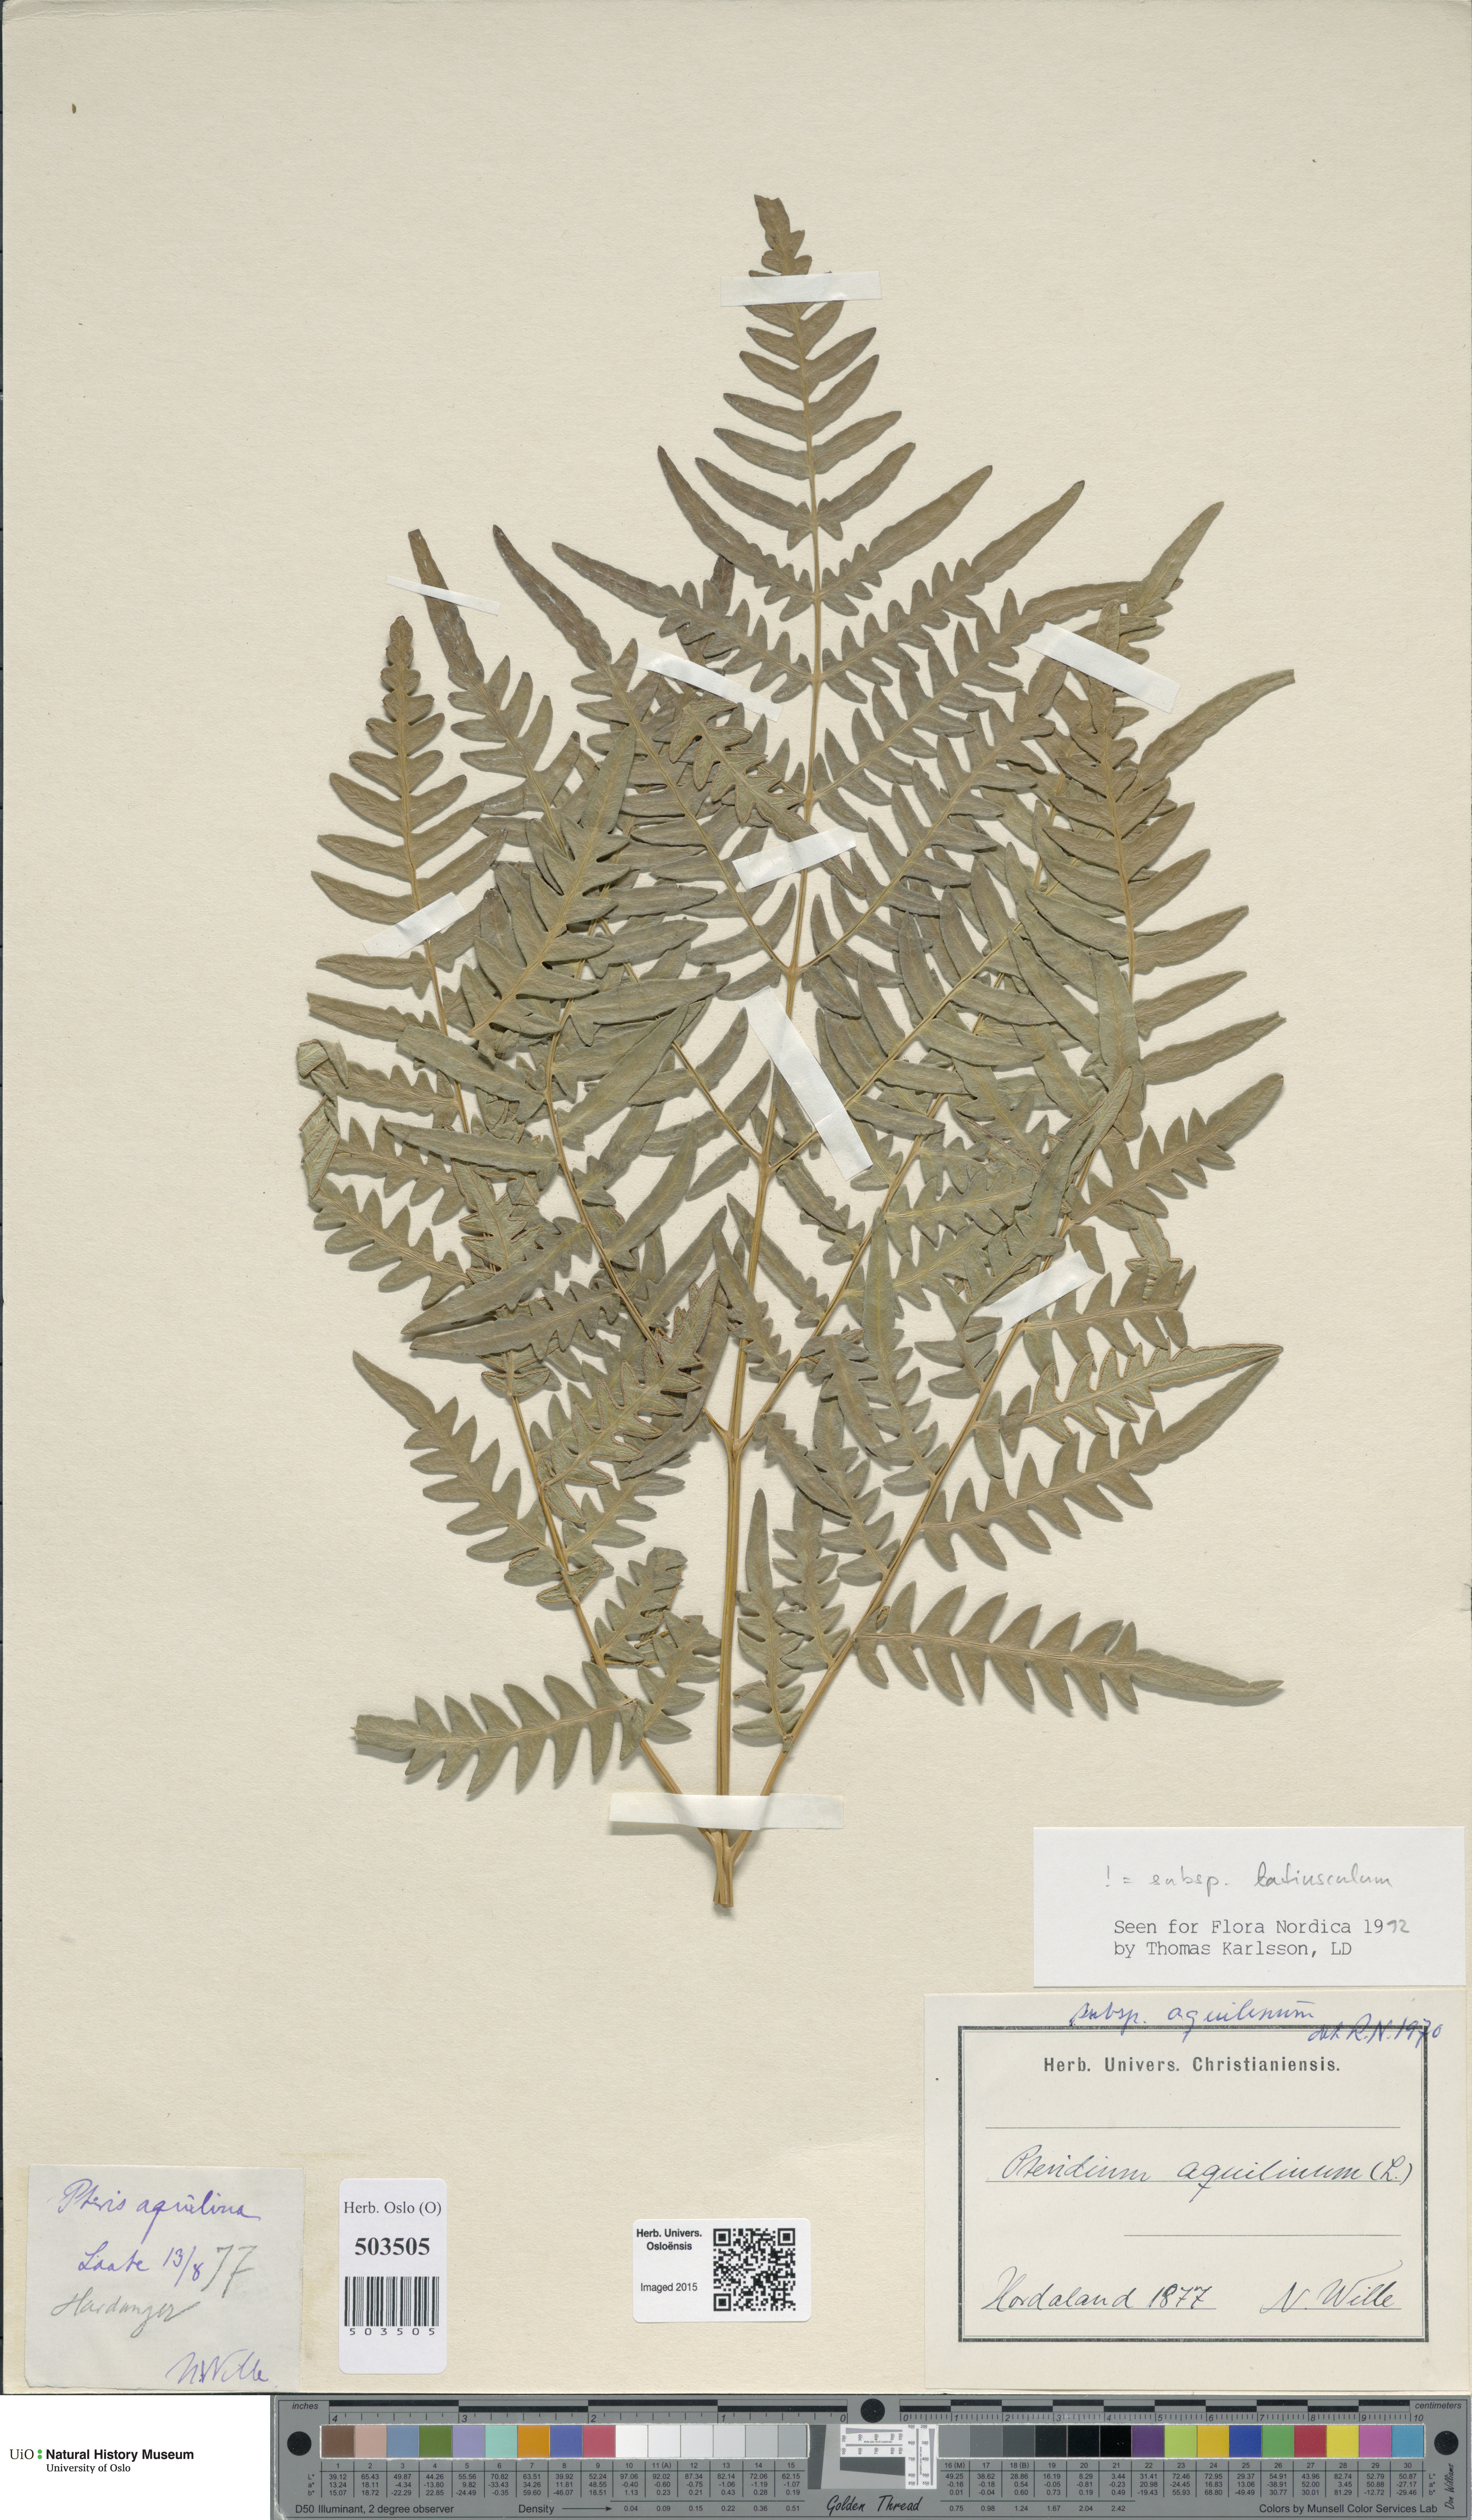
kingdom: Plantae
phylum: Tracheophyta
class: Polypodiopsida
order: Polypodiales
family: Dennstaedtiaceae
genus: Pteridium
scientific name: Pteridium aquilinum
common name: Bracken
